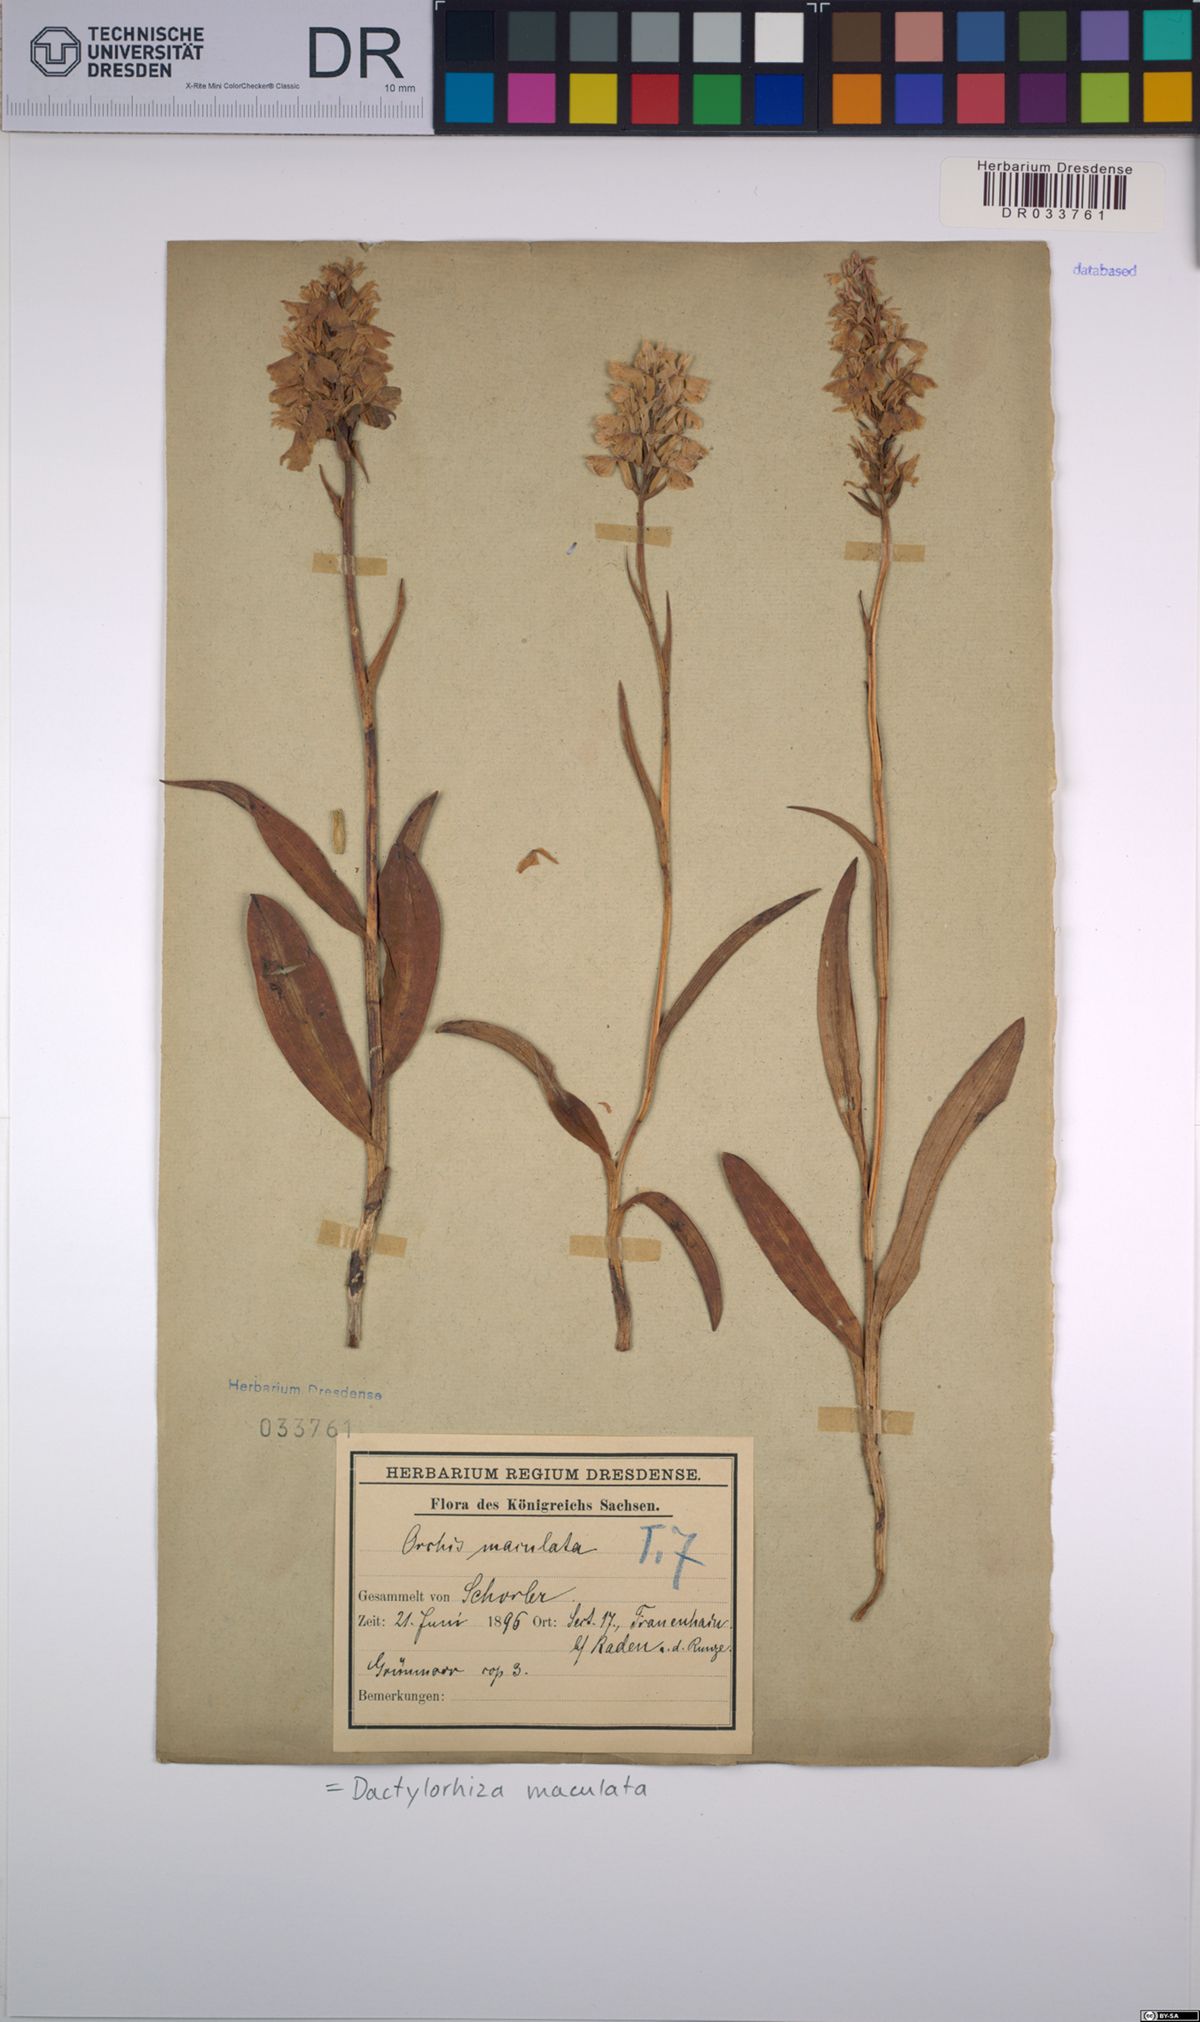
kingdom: Plantae
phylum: Tracheophyta
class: Liliopsida
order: Asparagales
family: Orchidaceae
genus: Dactylorhiza
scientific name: Dactylorhiza maculata
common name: Heath spotted-orchid
